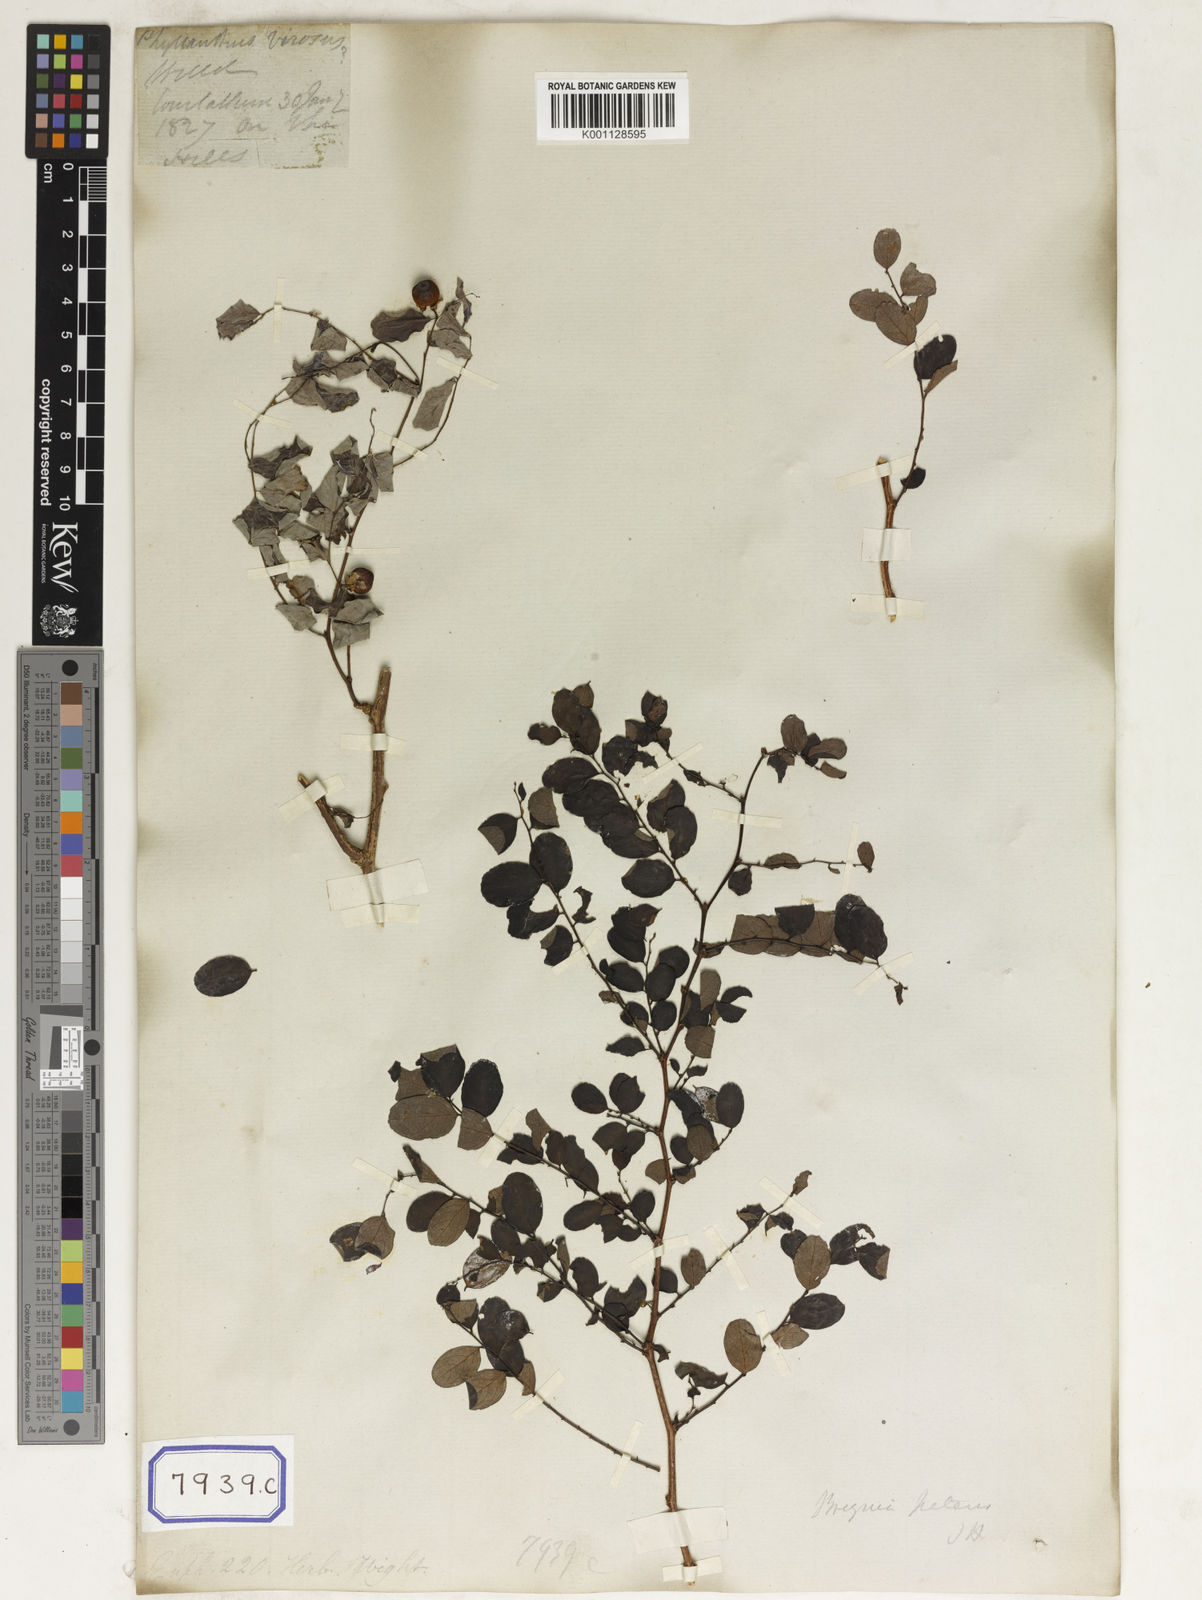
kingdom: Plantae
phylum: Tracheophyta
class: Magnoliopsida
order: Malpighiales
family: Euphorbiaceae
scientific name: Euphorbiaceae
